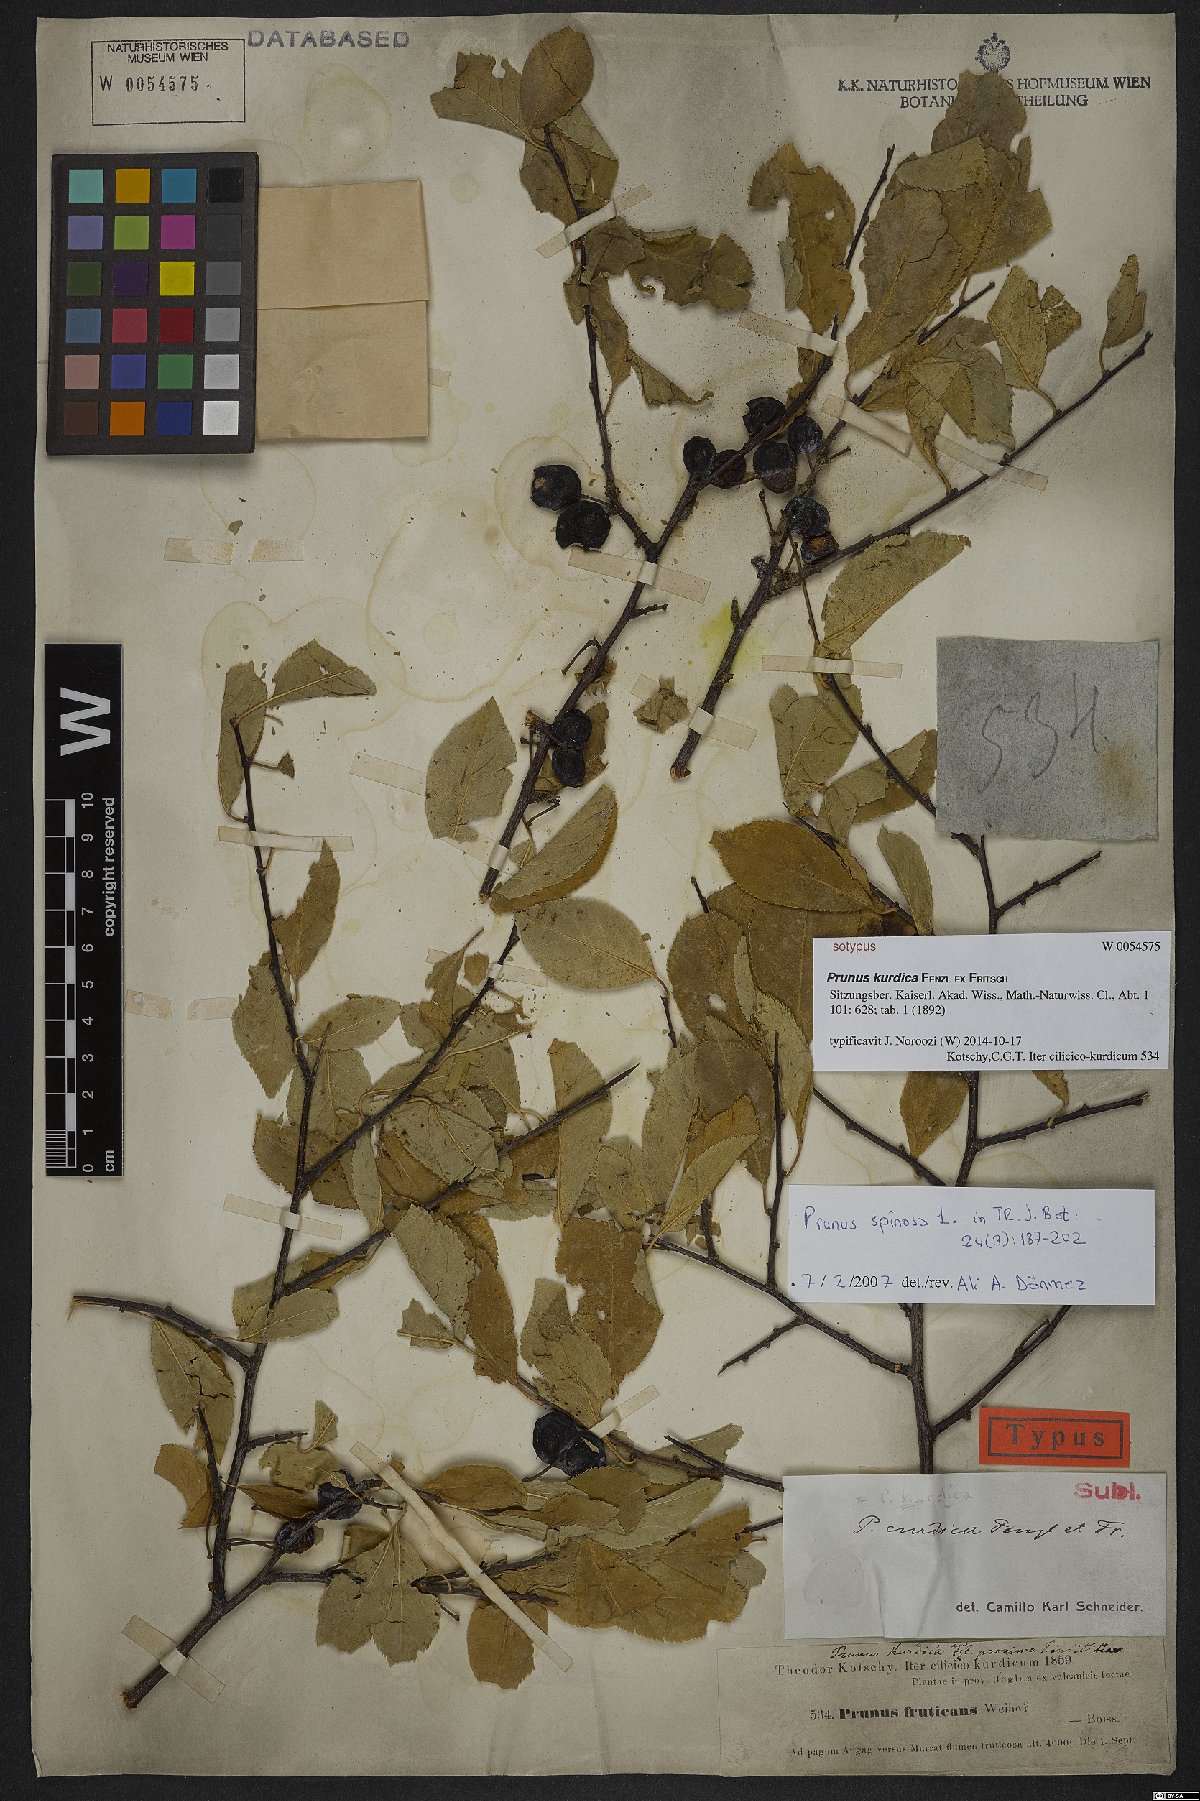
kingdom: Plantae
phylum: Tracheophyta
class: Magnoliopsida
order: Rosales
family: Rosaceae
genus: Prunus
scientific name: Prunus spinosa
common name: Blackthorn
